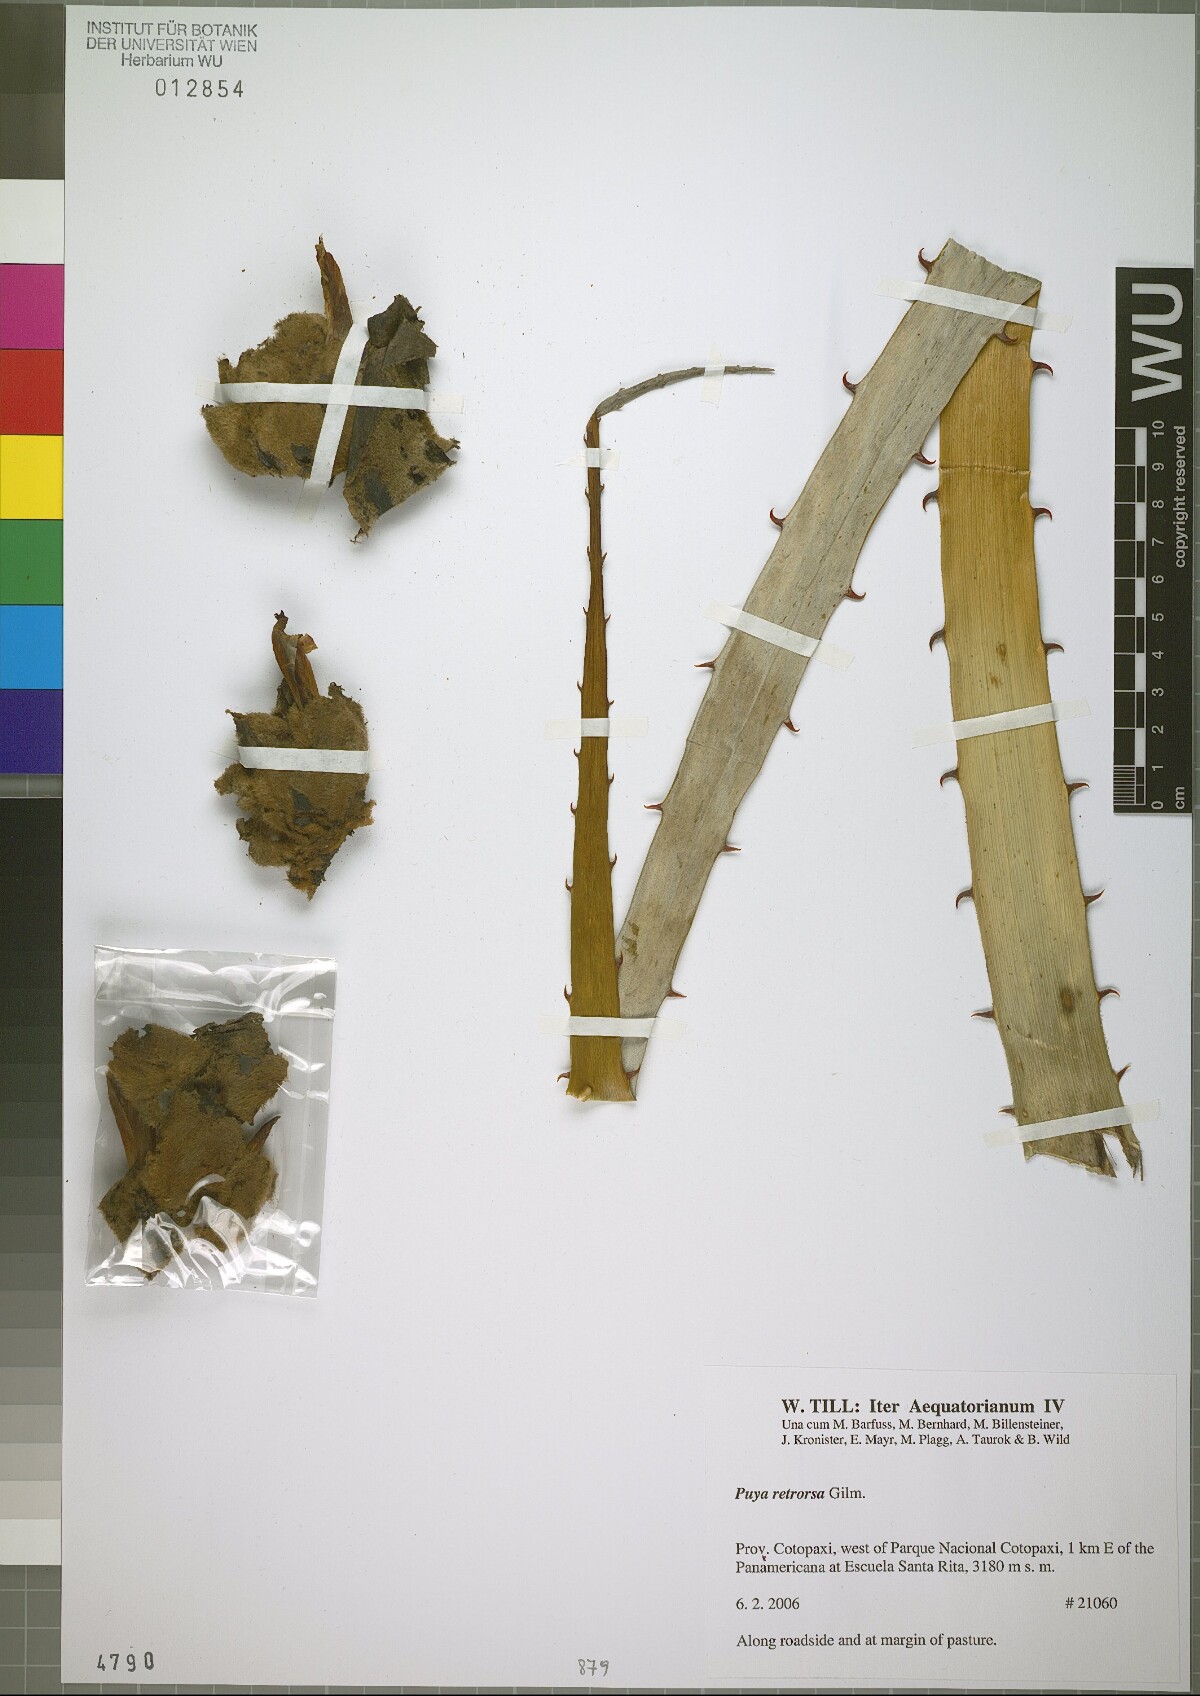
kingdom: Plantae
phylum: Tracheophyta
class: Liliopsida
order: Poales
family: Bromeliaceae
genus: Puya
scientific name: Puya retrorsa
